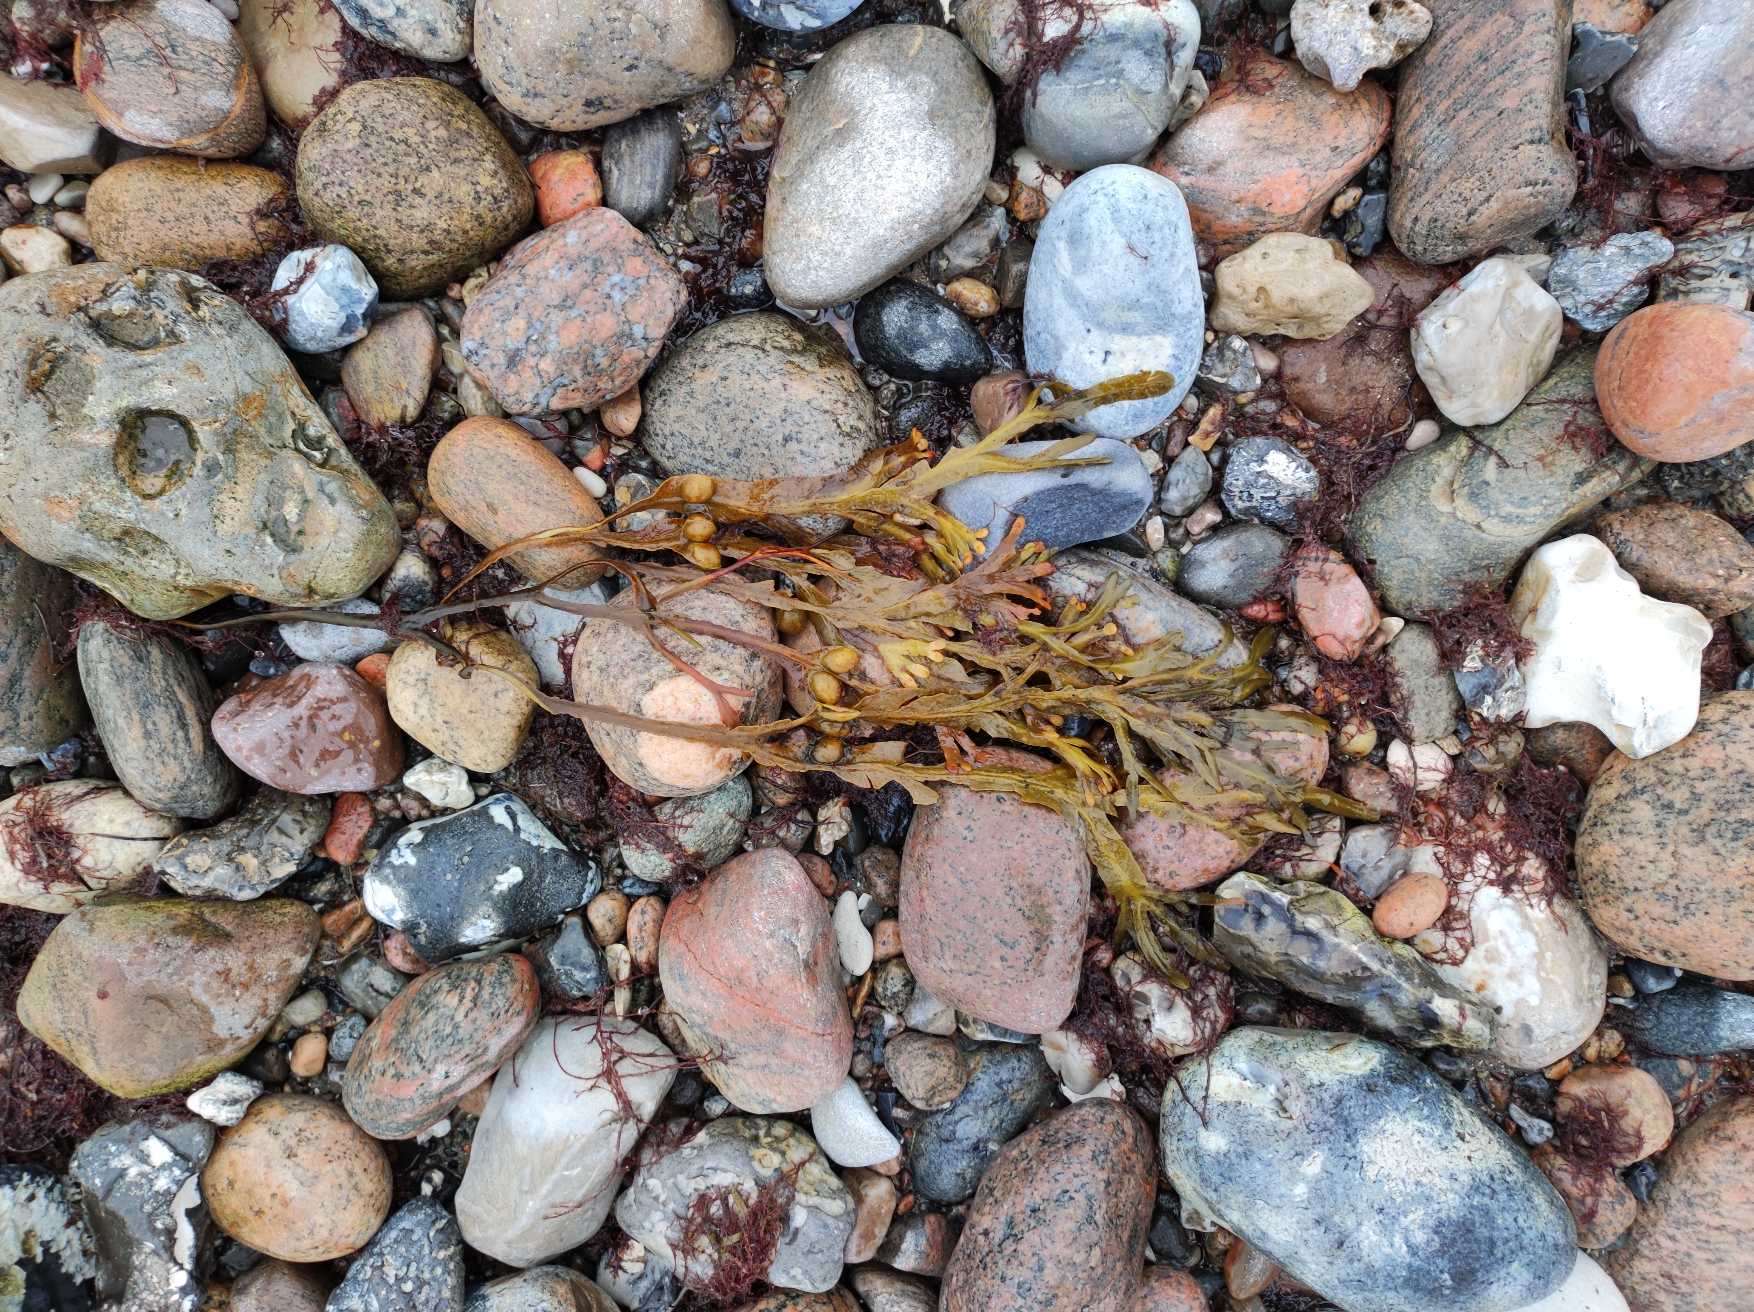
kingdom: Chromista
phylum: Ochrophyta
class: Phaeophyceae
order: Fucales
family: Fucaceae
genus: Fucus
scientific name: Fucus vesiculosus
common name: Blæretang
